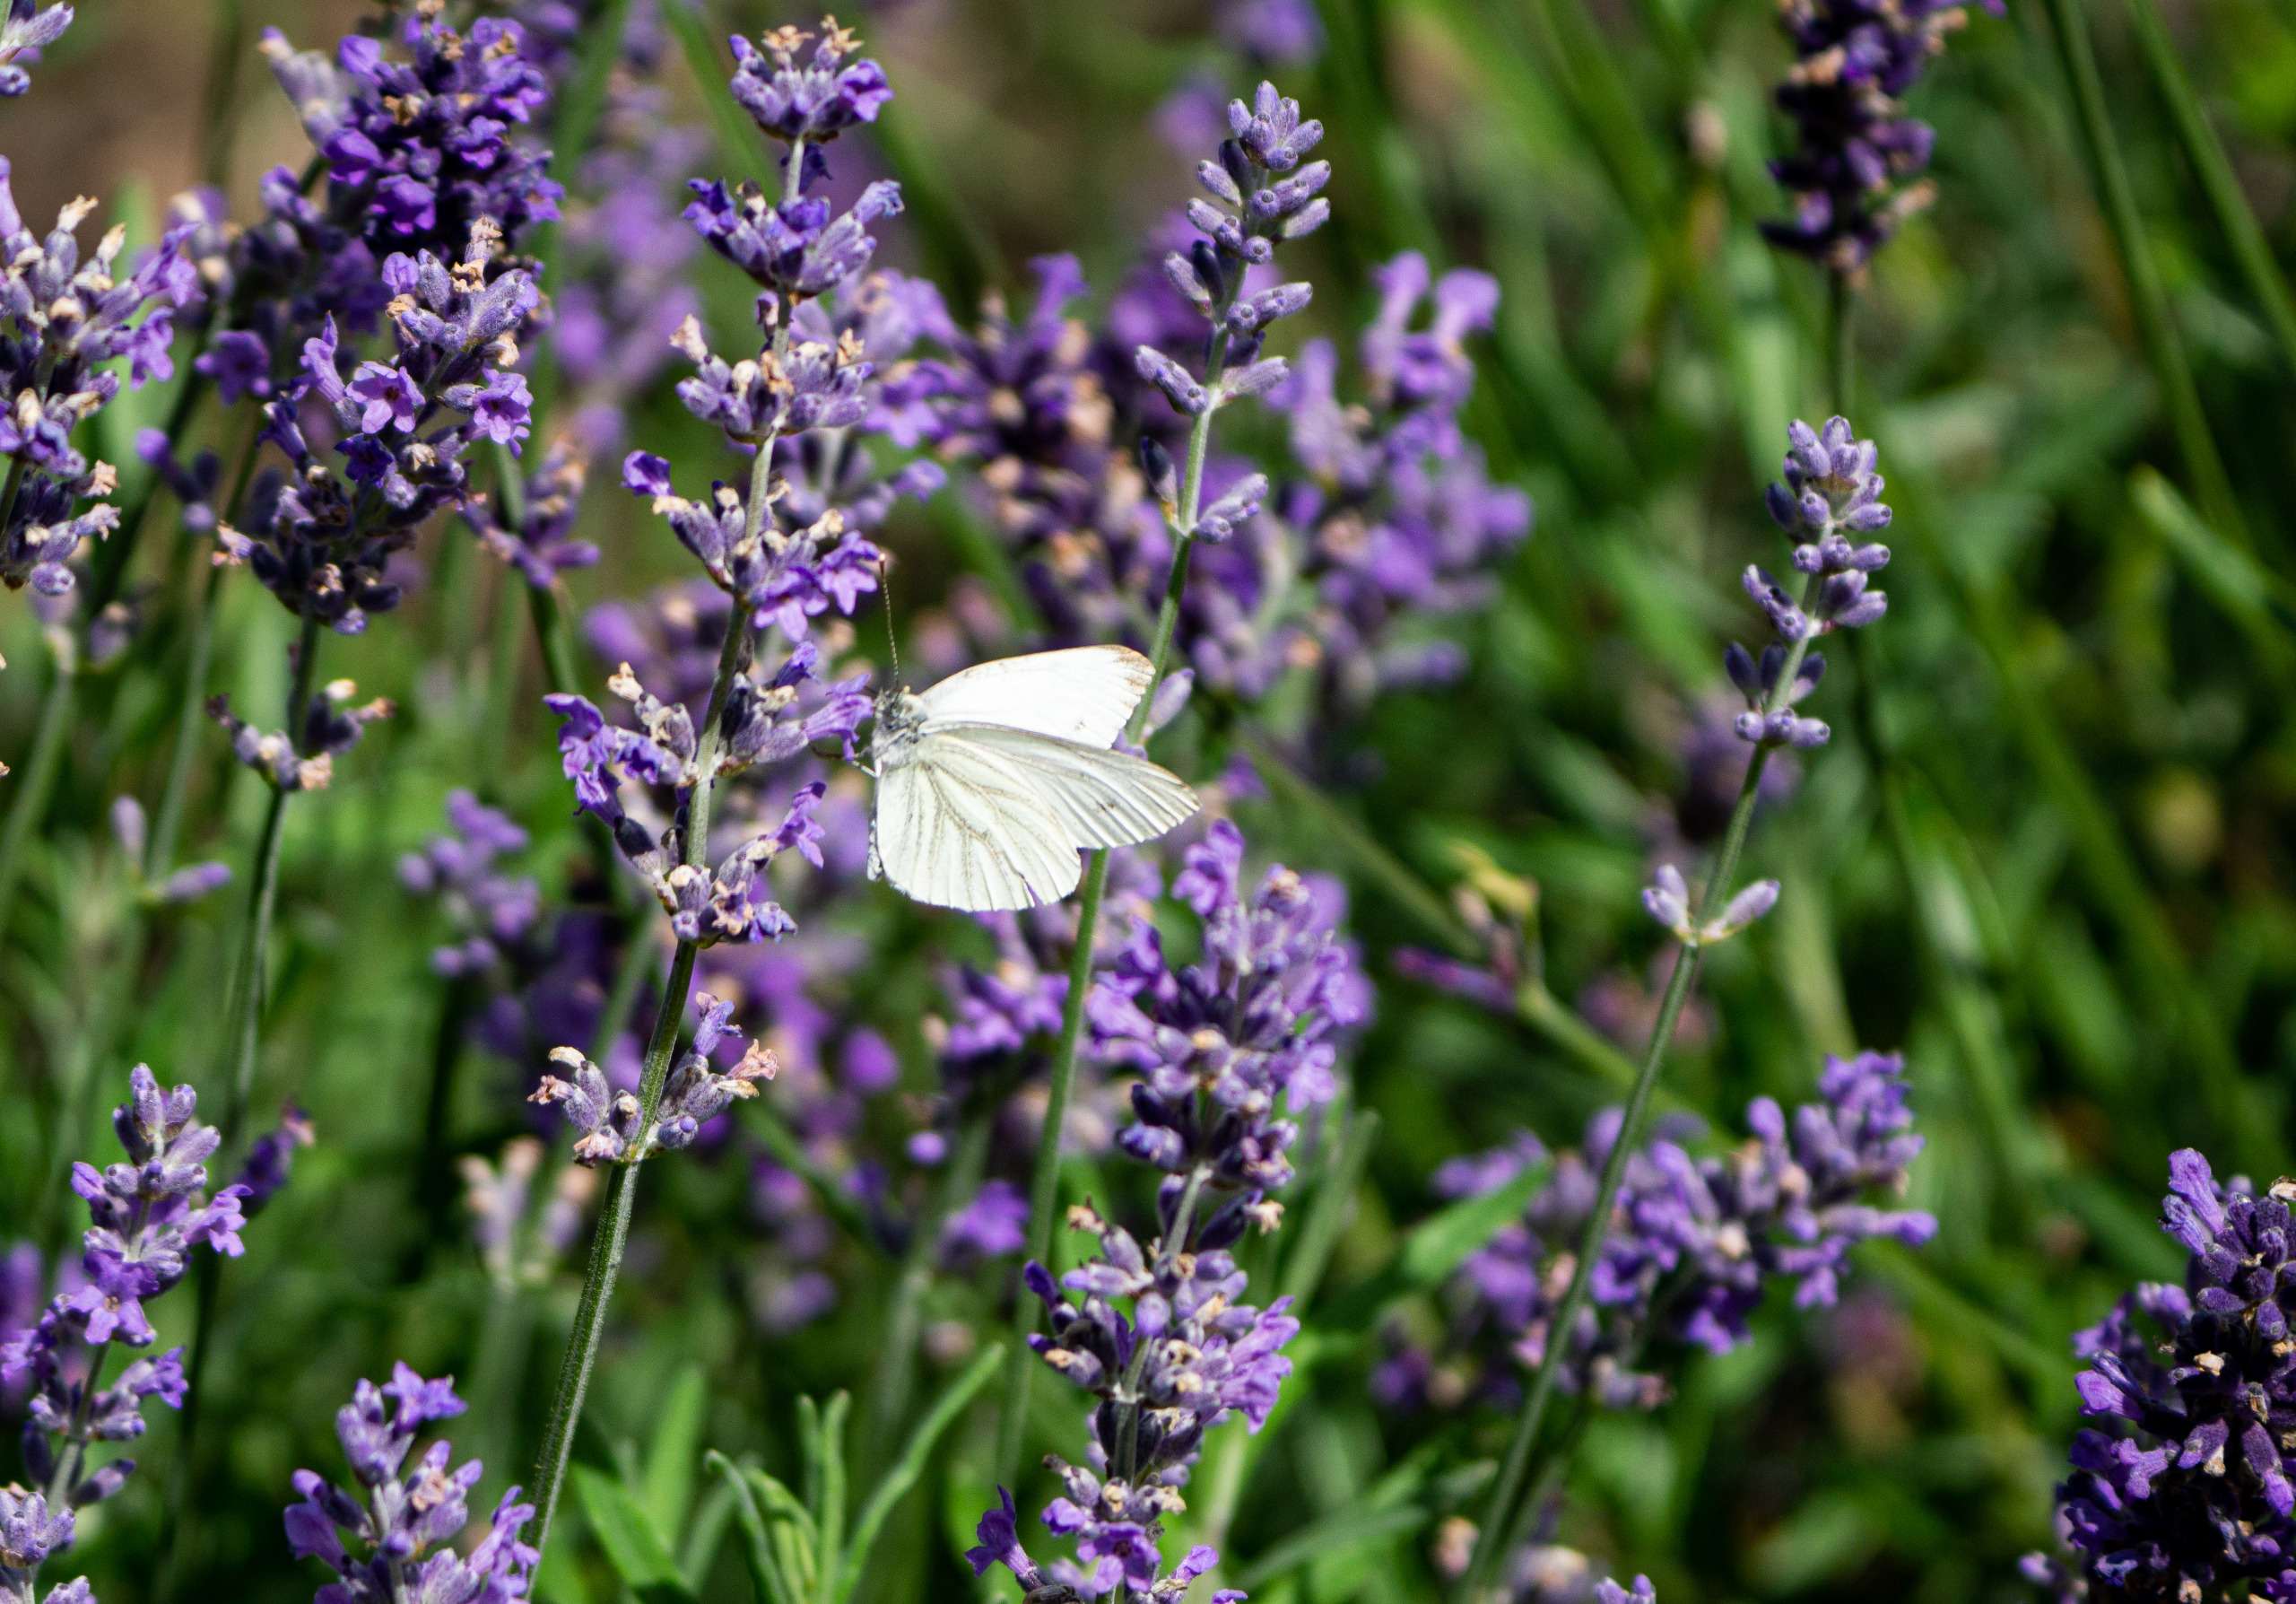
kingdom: Animalia
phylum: Arthropoda
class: Insecta
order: Lepidoptera
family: Pieridae
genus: Pieris
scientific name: Pieris napi
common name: Grønåret kålsommerfugl
